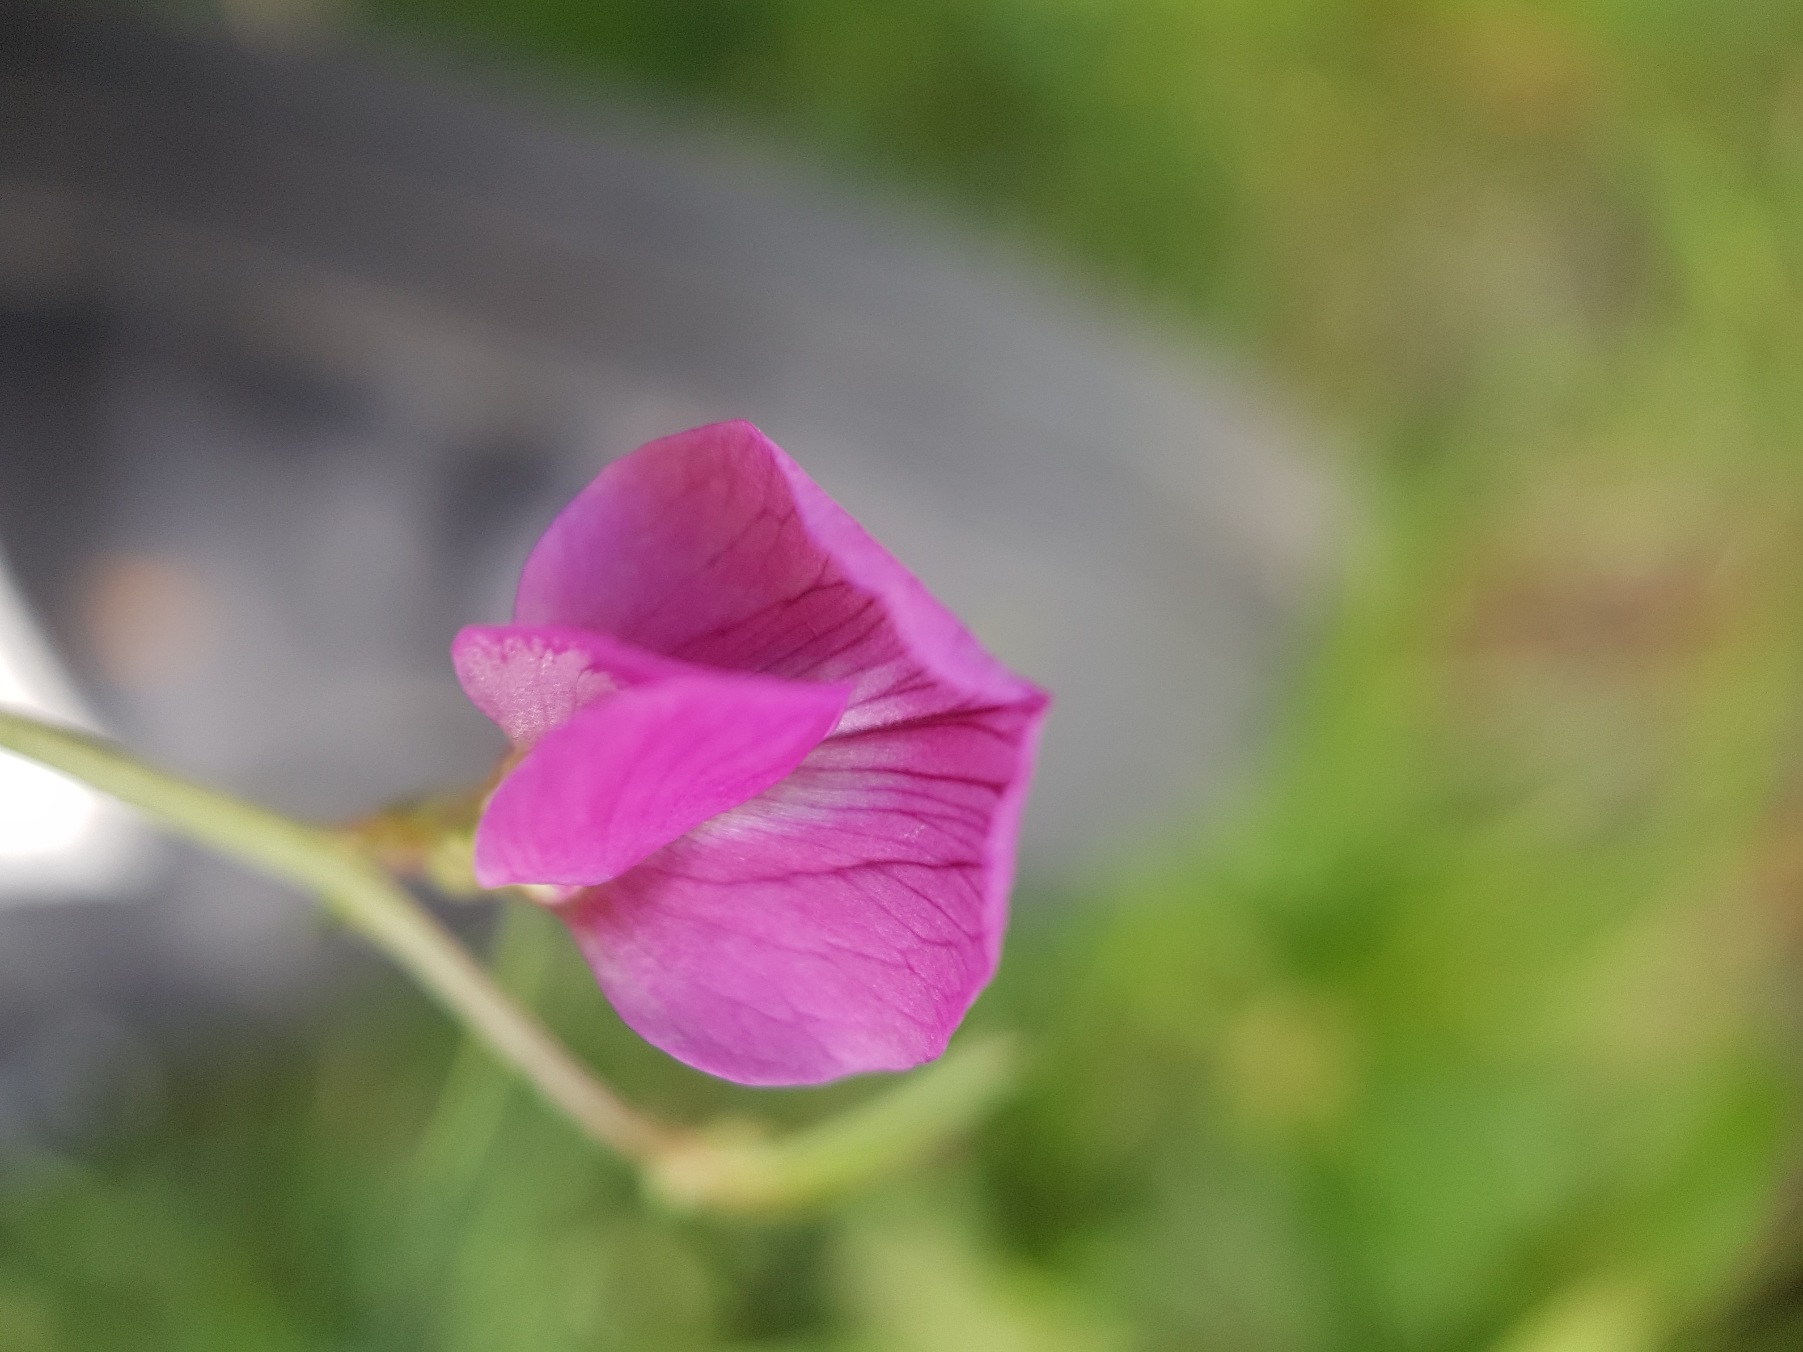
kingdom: Plantae
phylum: Tracheophyta
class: Magnoliopsida
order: Fabales
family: Fabaceae
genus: Vicia
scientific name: Vicia sativa
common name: Smalbladet vikke
